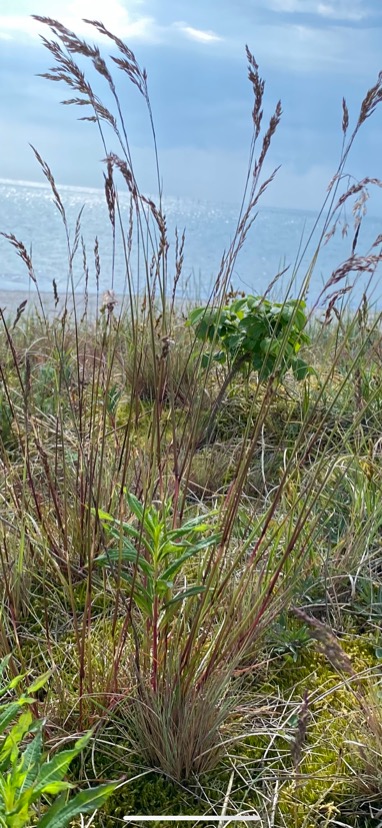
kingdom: Plantae
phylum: Tracheophyta
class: Liliopsida
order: Poales
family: Poaceae
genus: Festuca
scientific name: Festuca rubra
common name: Rød svingel
